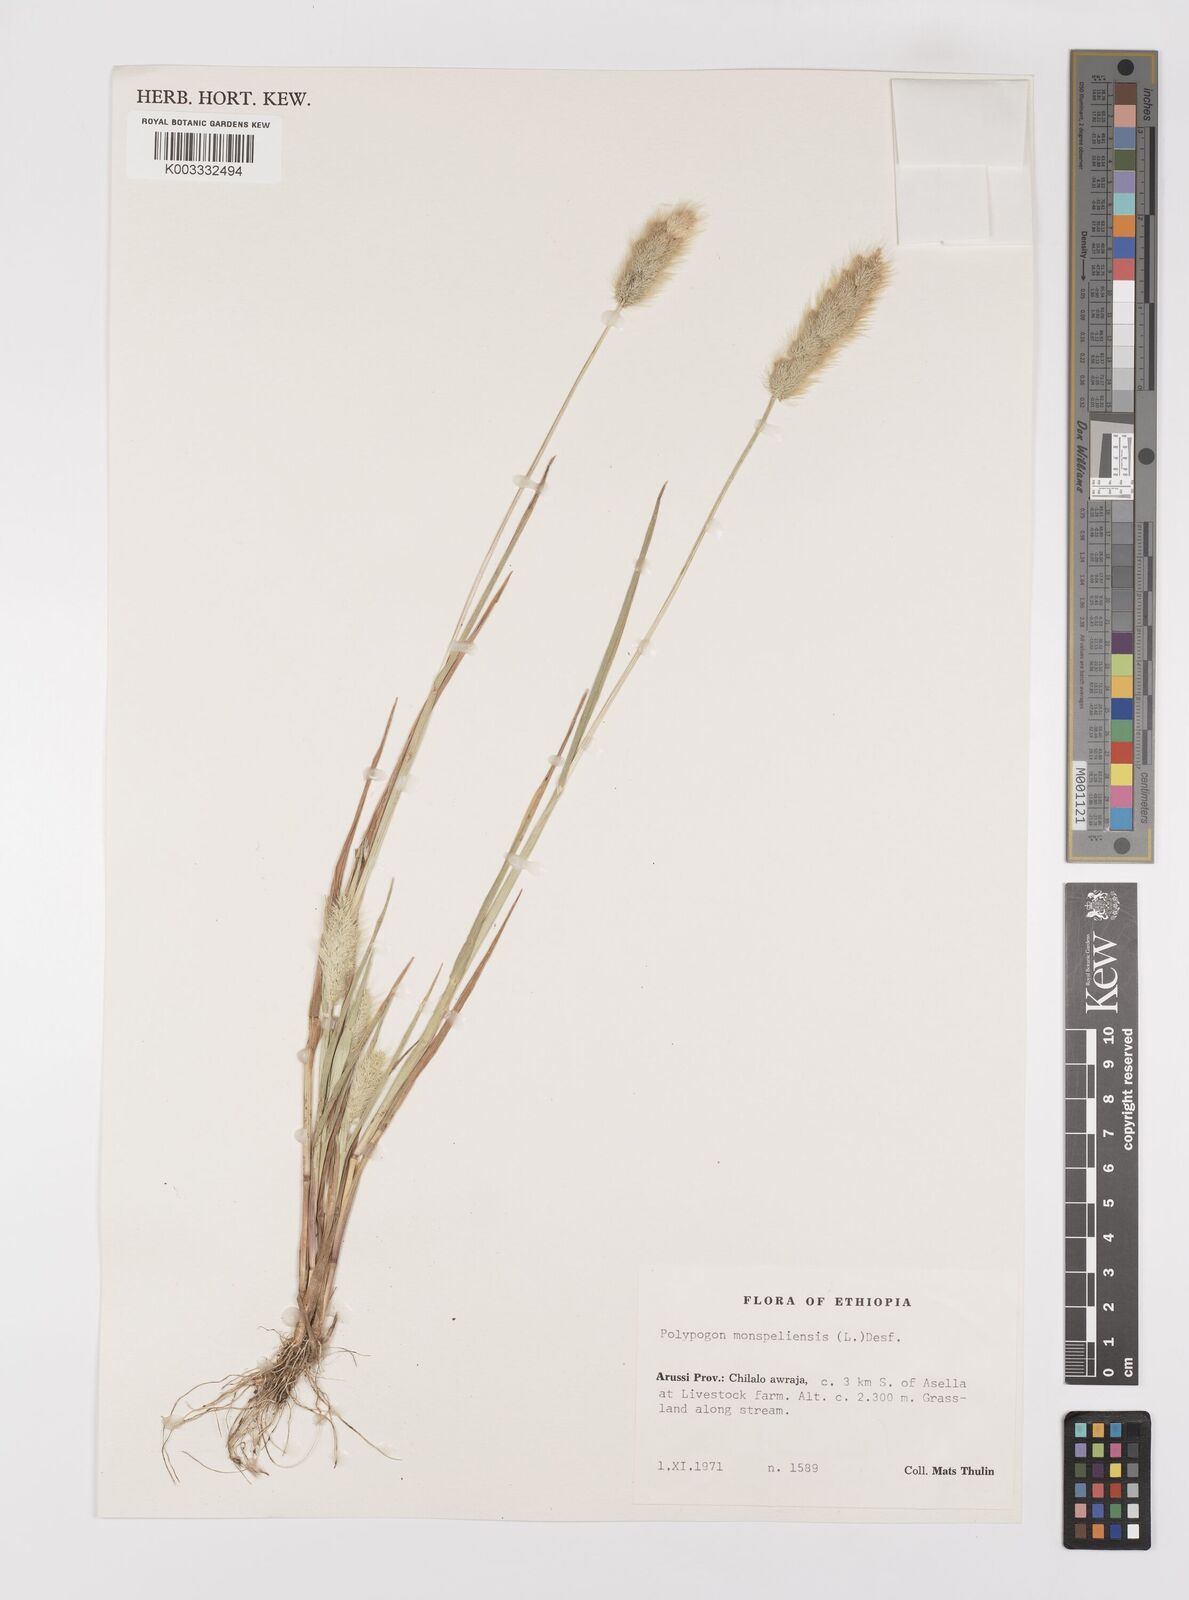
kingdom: Plantae
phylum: Tracheophyta
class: Liliopsida
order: Poales
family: Poaceae
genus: Polypogon
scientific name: Polypogon monspeliensis
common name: Annual rabbitsfoot grass
